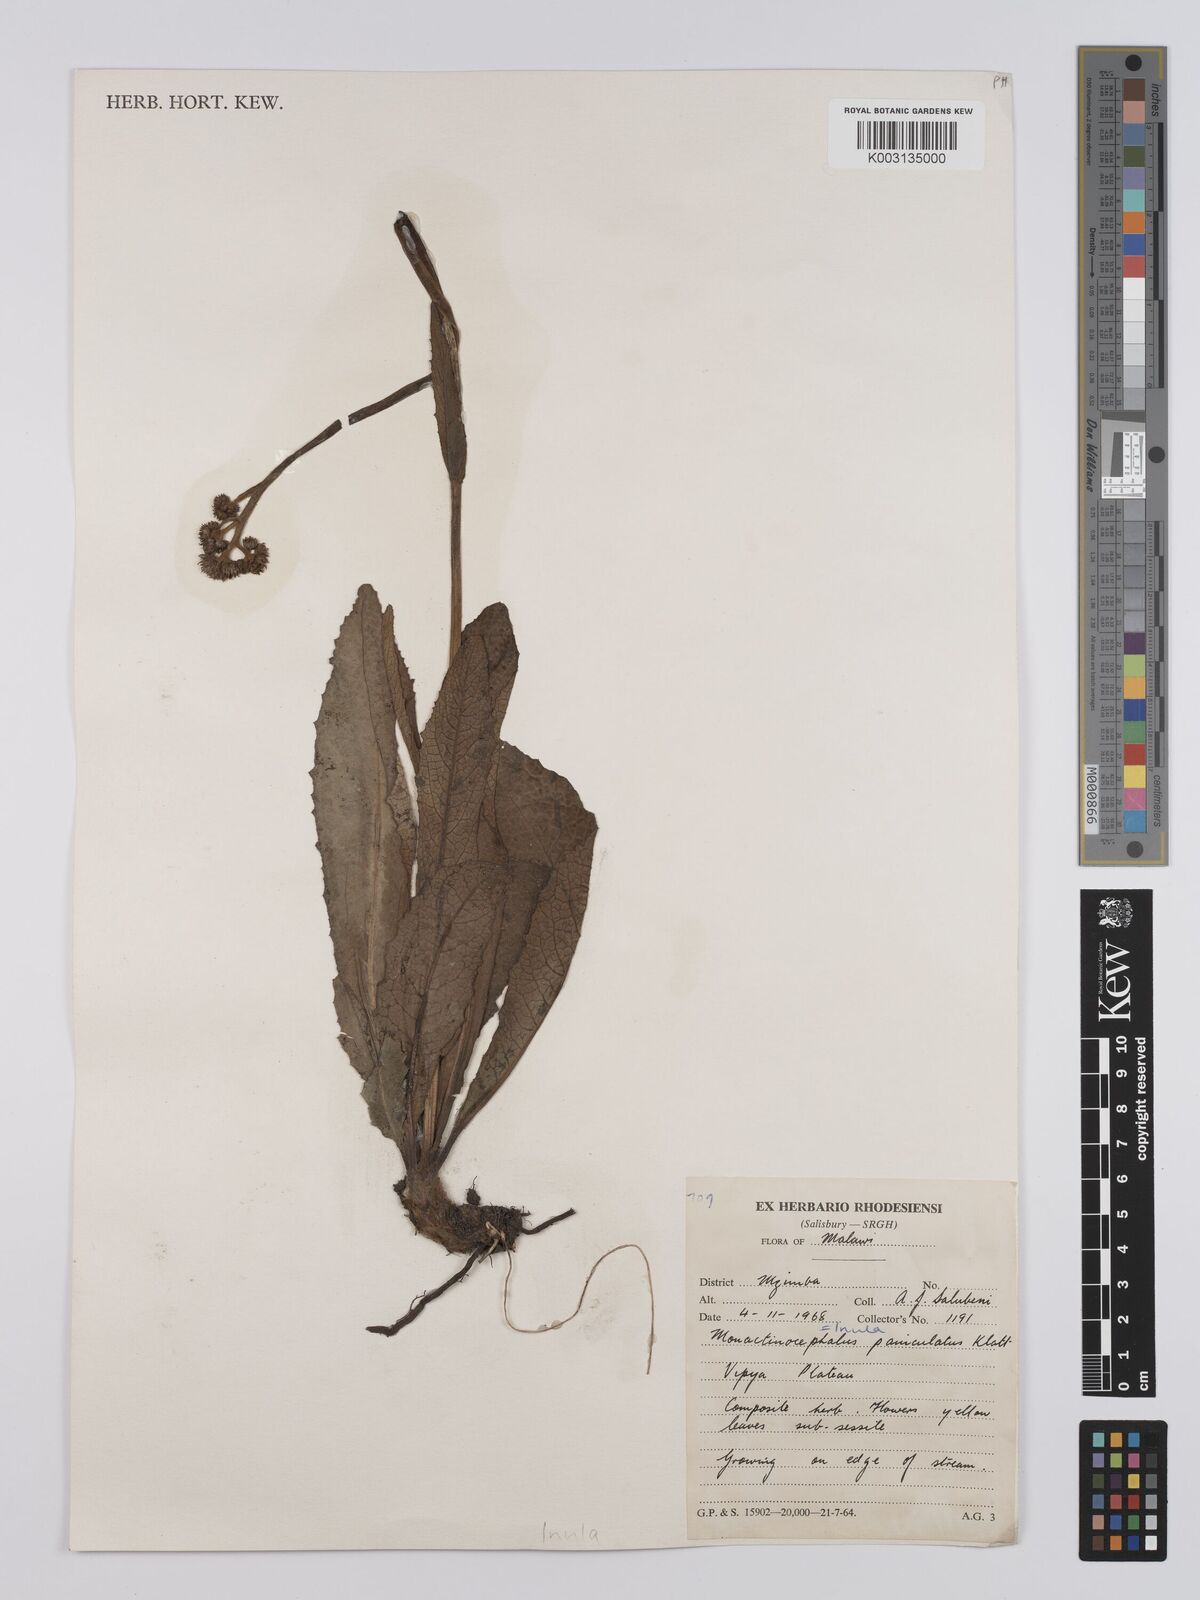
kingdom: Plantae
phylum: Tracheophyta
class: Magnoliopsida
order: Asterales
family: Asteraceae
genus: Monactinocephalus
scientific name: Monactinocephalus paniculatus
